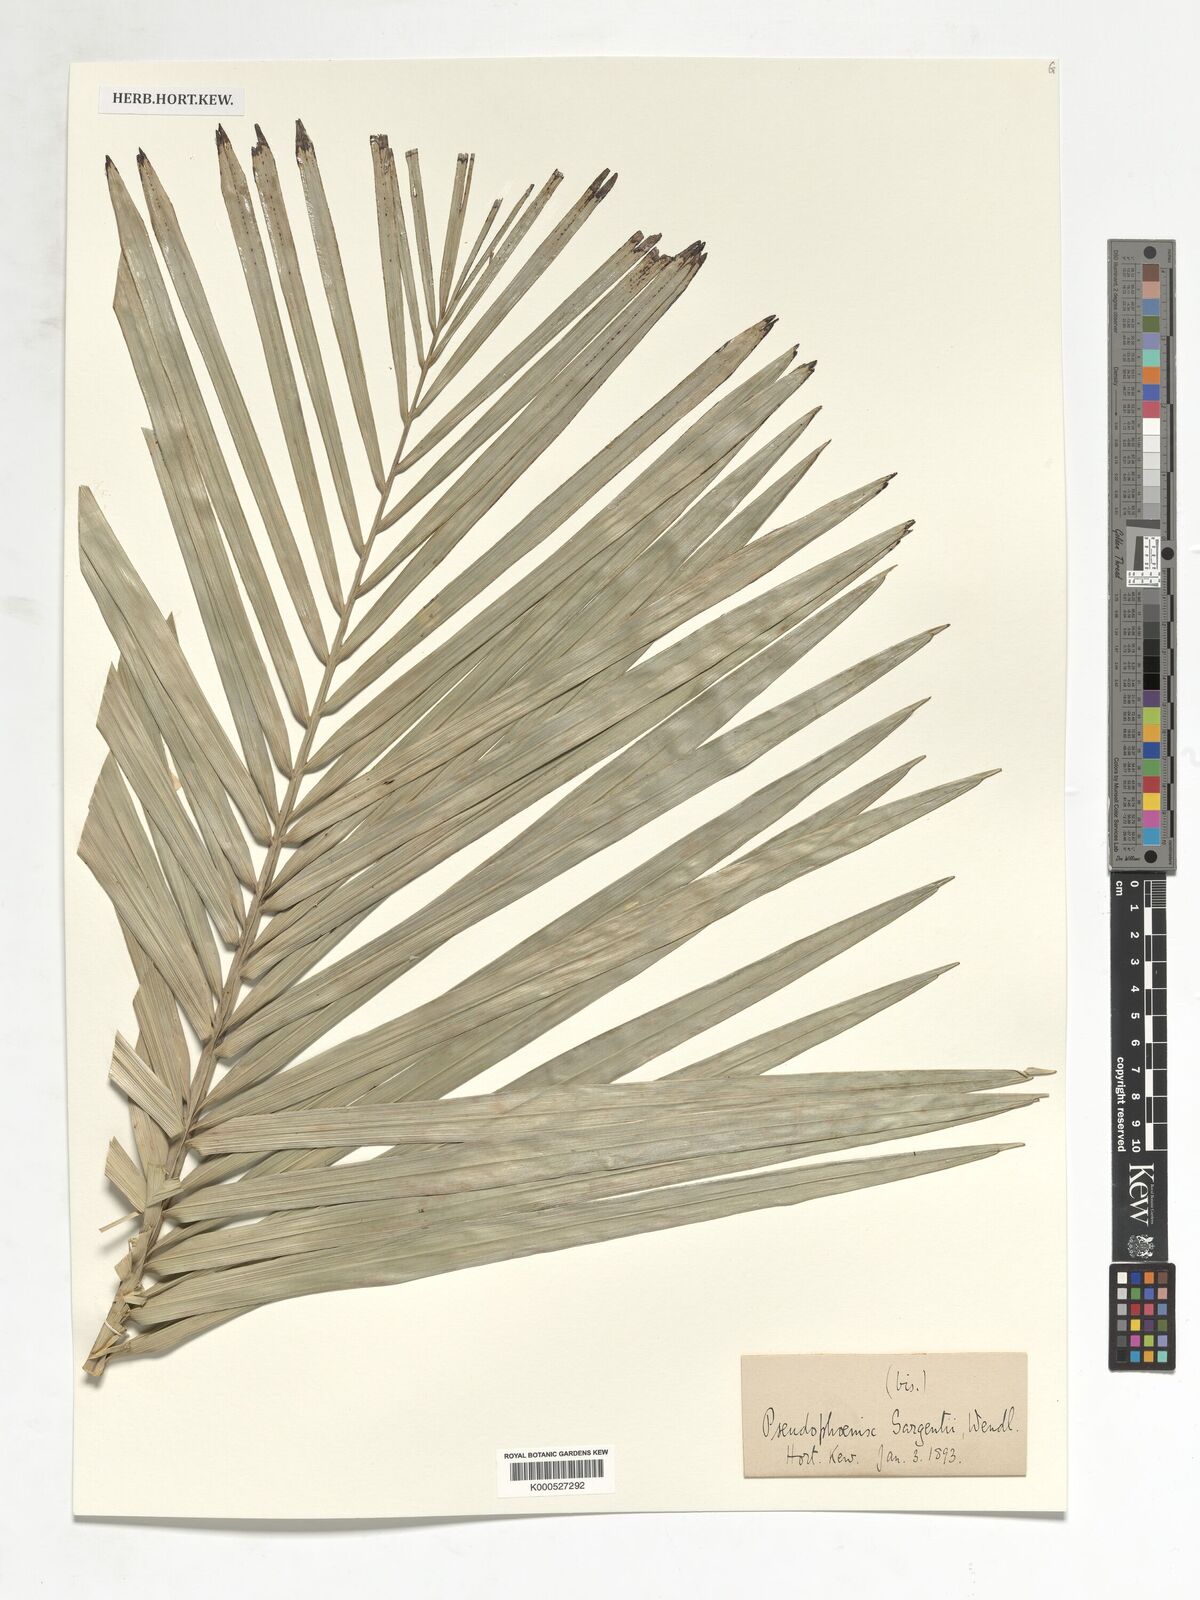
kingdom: Plantae
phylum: Tracheophyta
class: Liliopsida
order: Arecales
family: Arecaceae
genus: Pseudophoenix
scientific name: Pseudophoenix sargentii
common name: Buccaneer palm
